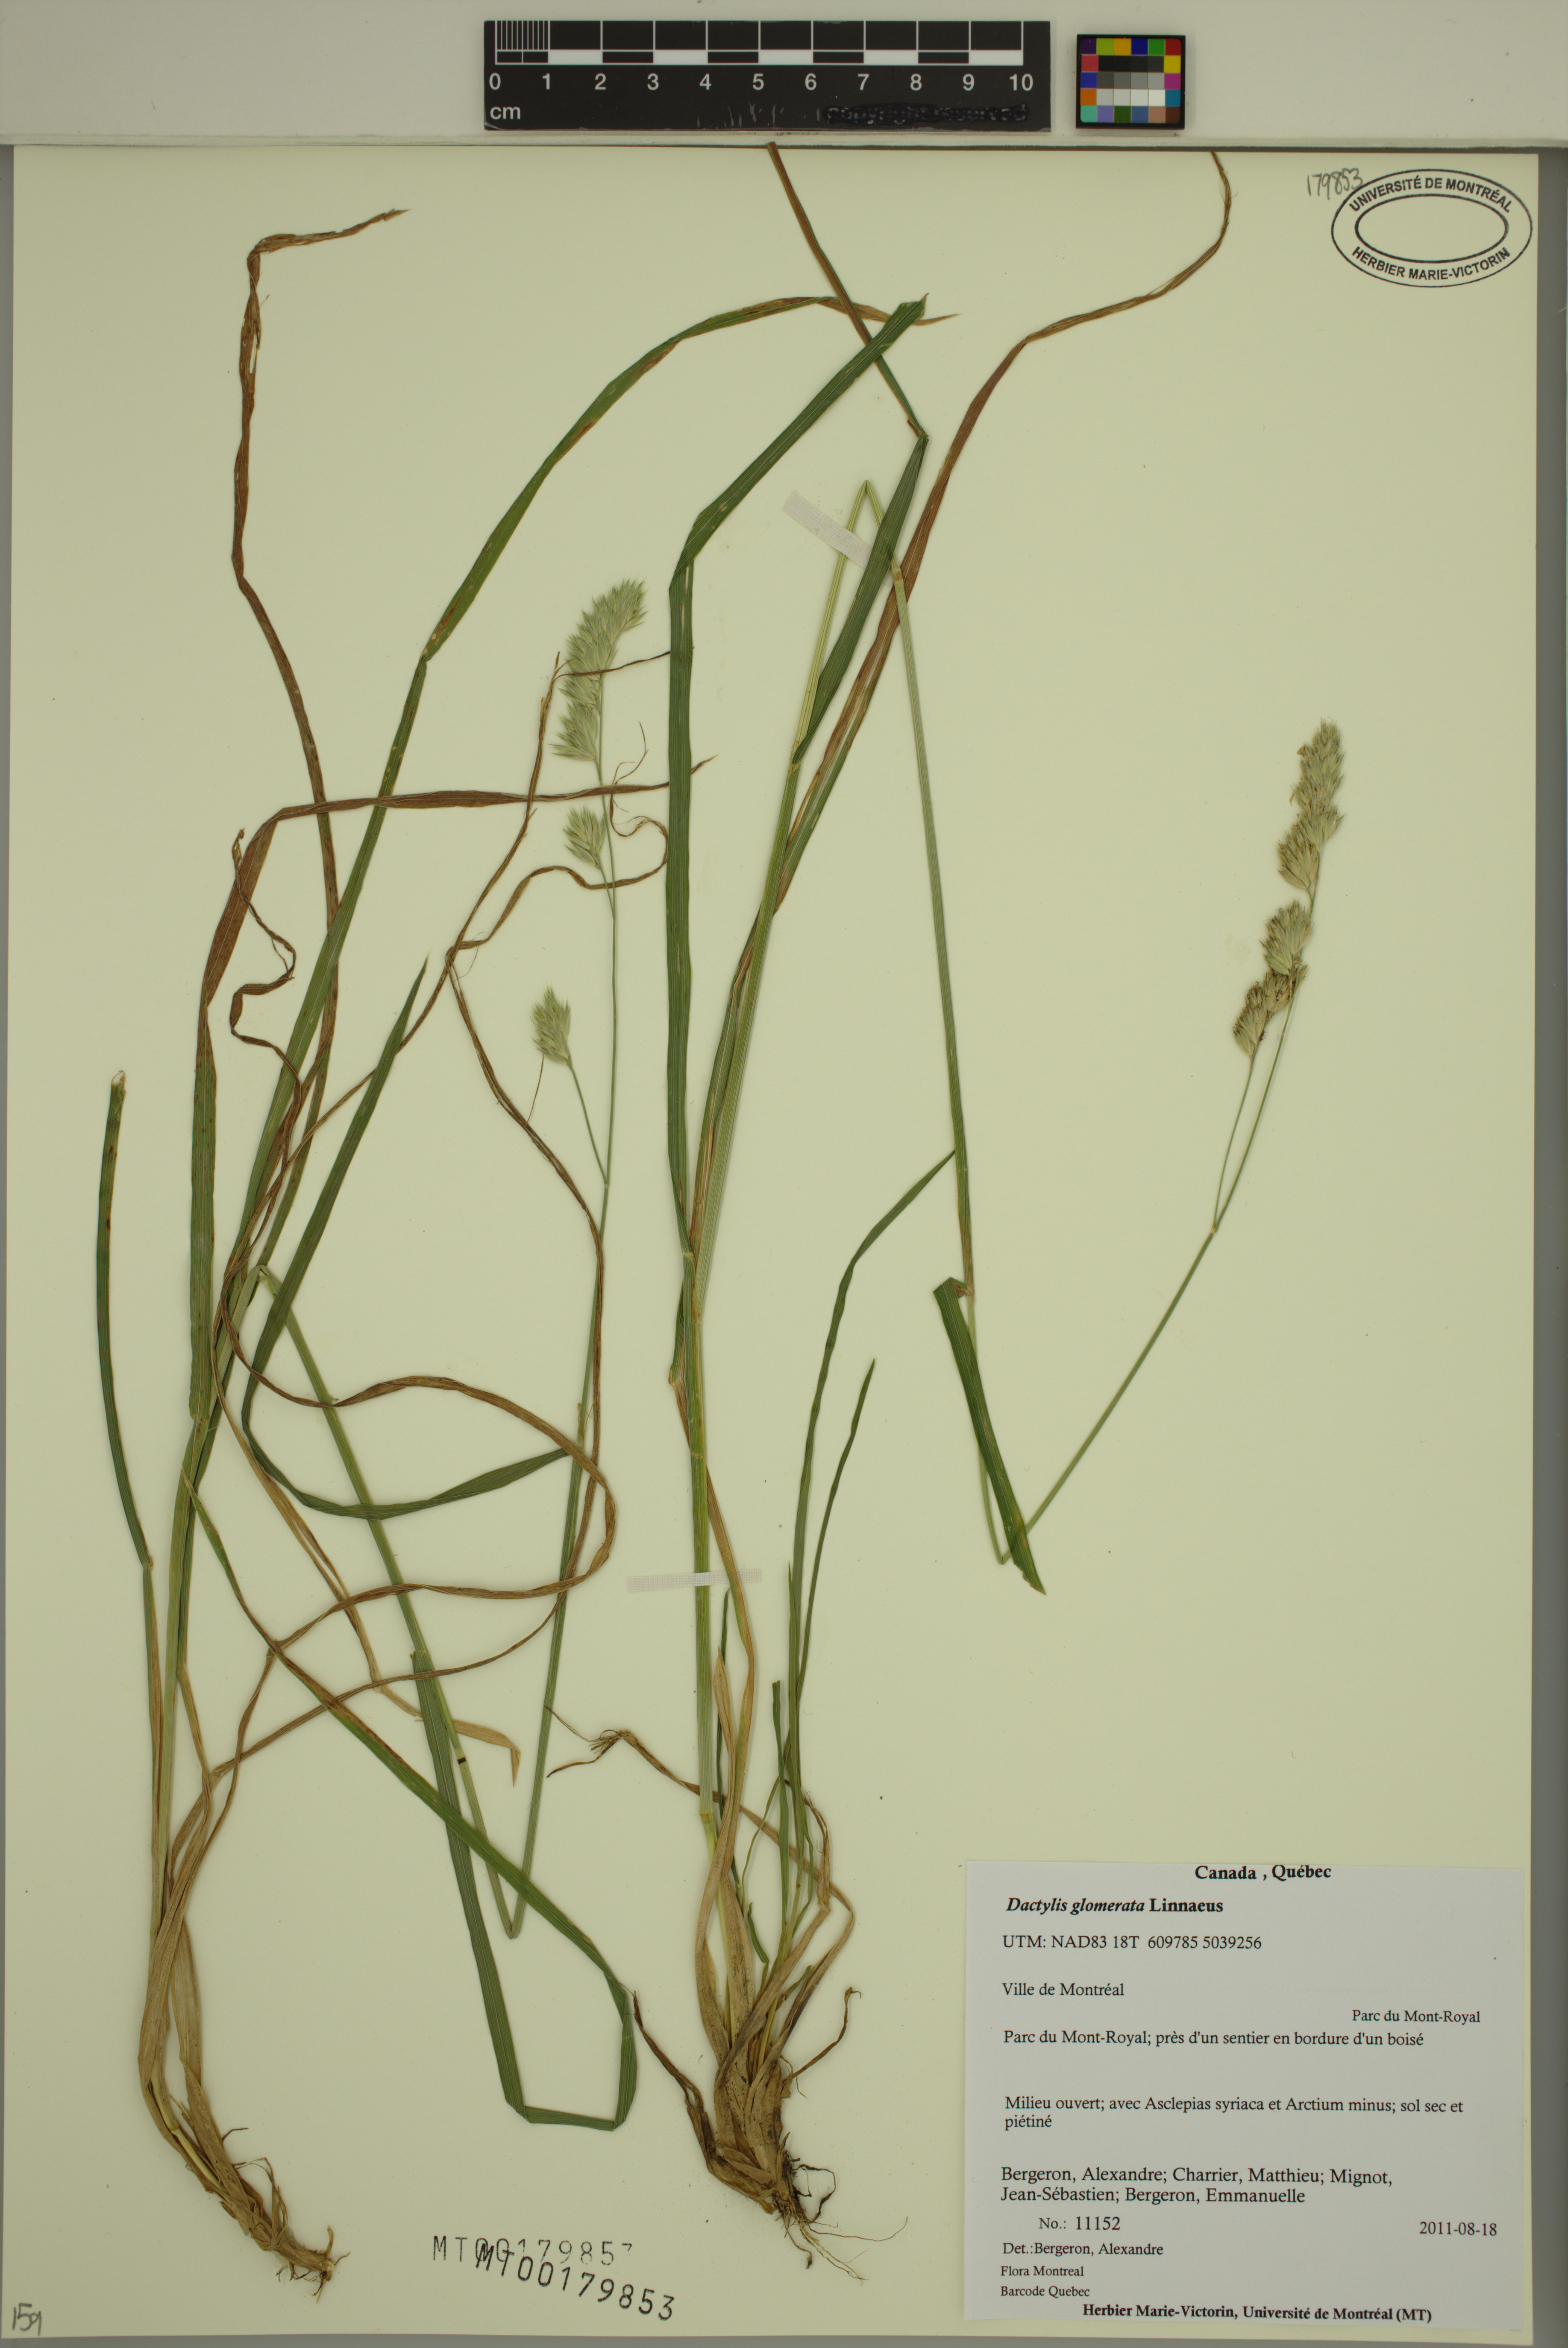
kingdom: Plantae
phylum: Tracheophyta
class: Liliopsida
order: Poales
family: Poaceae
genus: Dactylis
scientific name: Dactylis glomerata
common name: Orchardgrass
